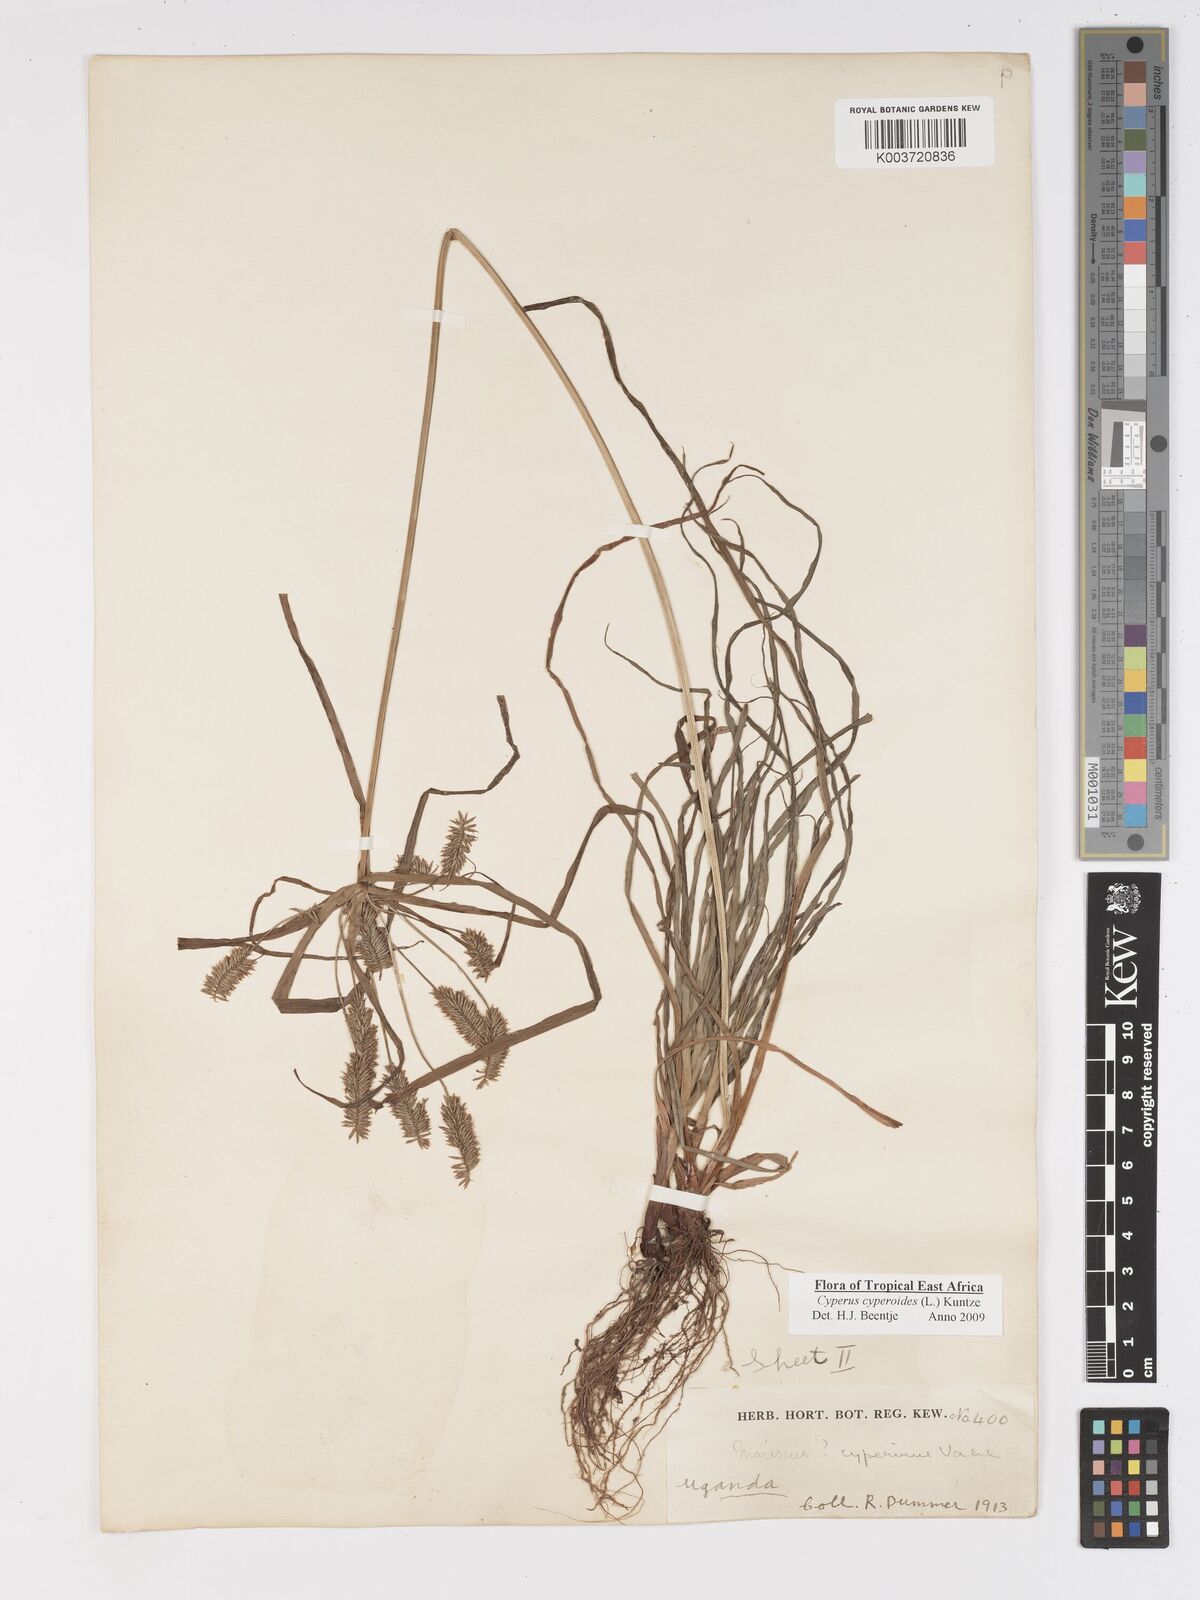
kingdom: Plantae
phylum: Tracheophyta
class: Liliopsida
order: Poales
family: Cyperaceae
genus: Cyperus
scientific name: Cyperus cyperoides
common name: Pacific island flat sedge
